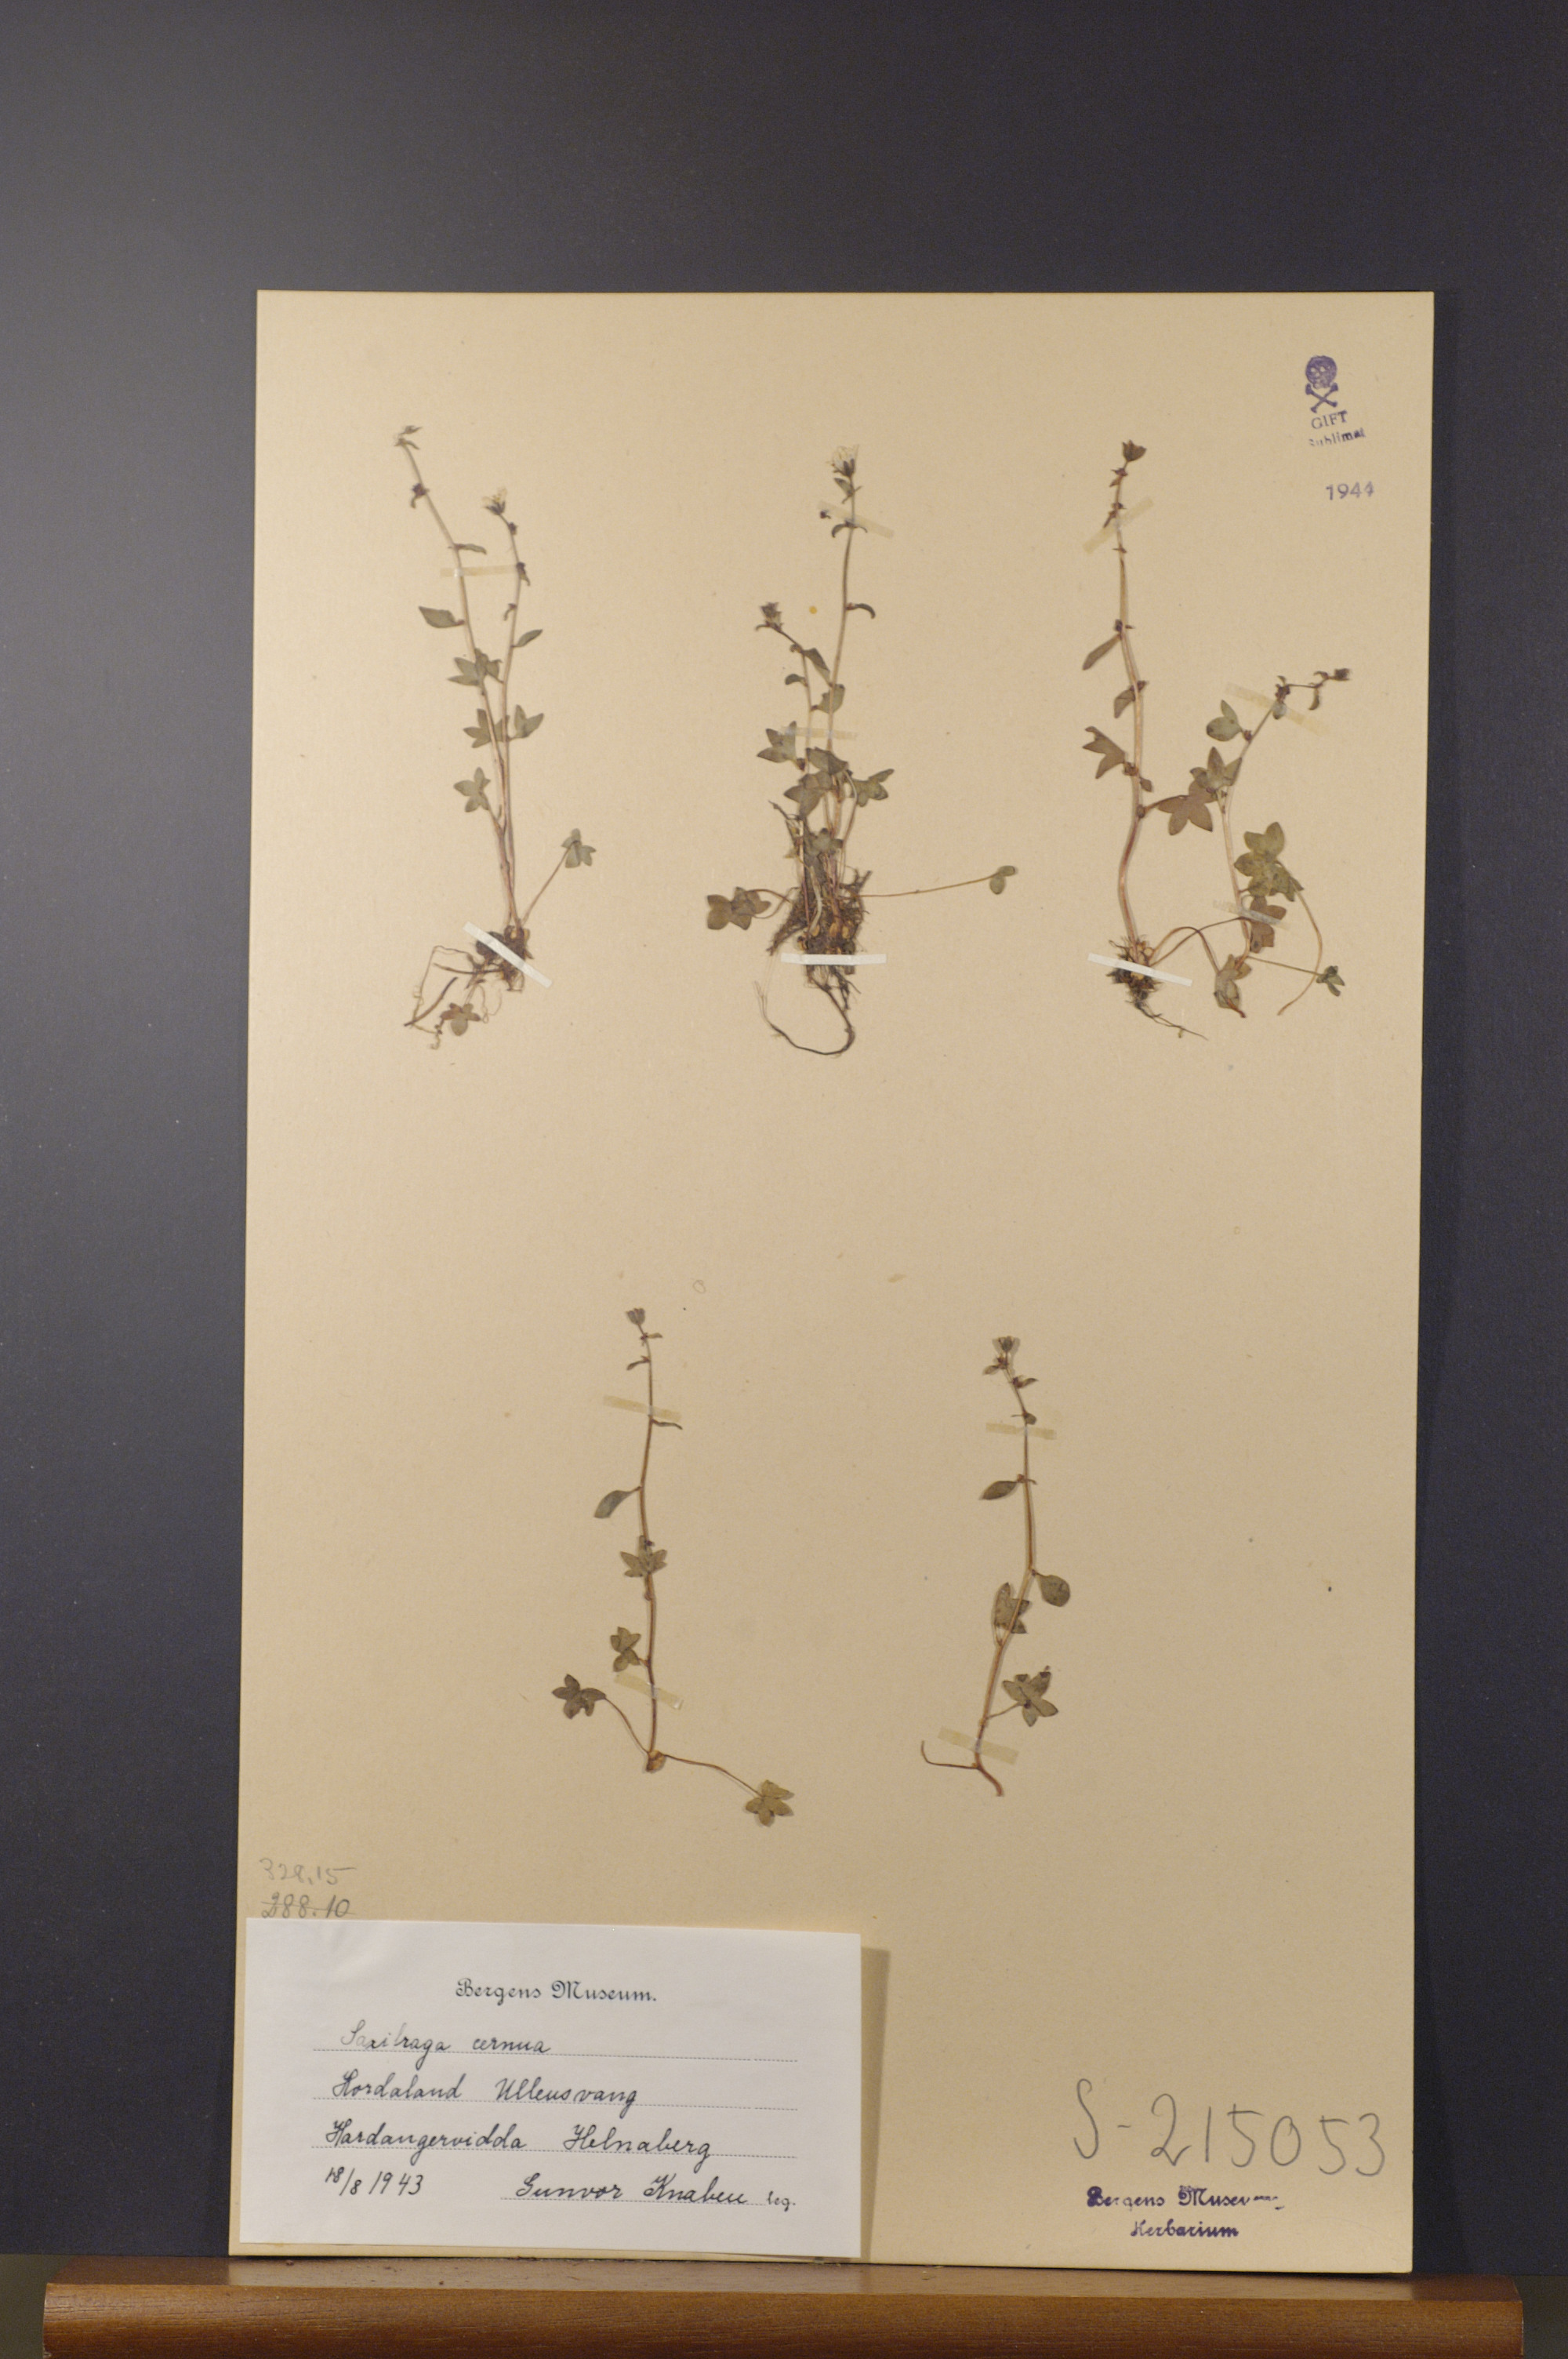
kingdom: Plantae
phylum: Tracheophyta
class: Magnoliopsida
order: Saxifragales
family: Saxifragaceae
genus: Saxifraga
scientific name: Saxifraga cernua
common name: Drooping saxifrage
